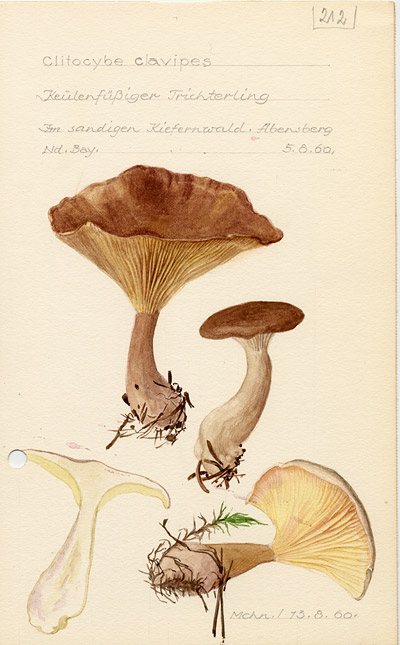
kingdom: Fungi
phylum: Basidiomycota
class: Agaricomycetes
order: Agaricales
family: Hygrophoraceae
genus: Ampulloclitocybe
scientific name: Ampulloclitocybe clavipes
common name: Club foot
